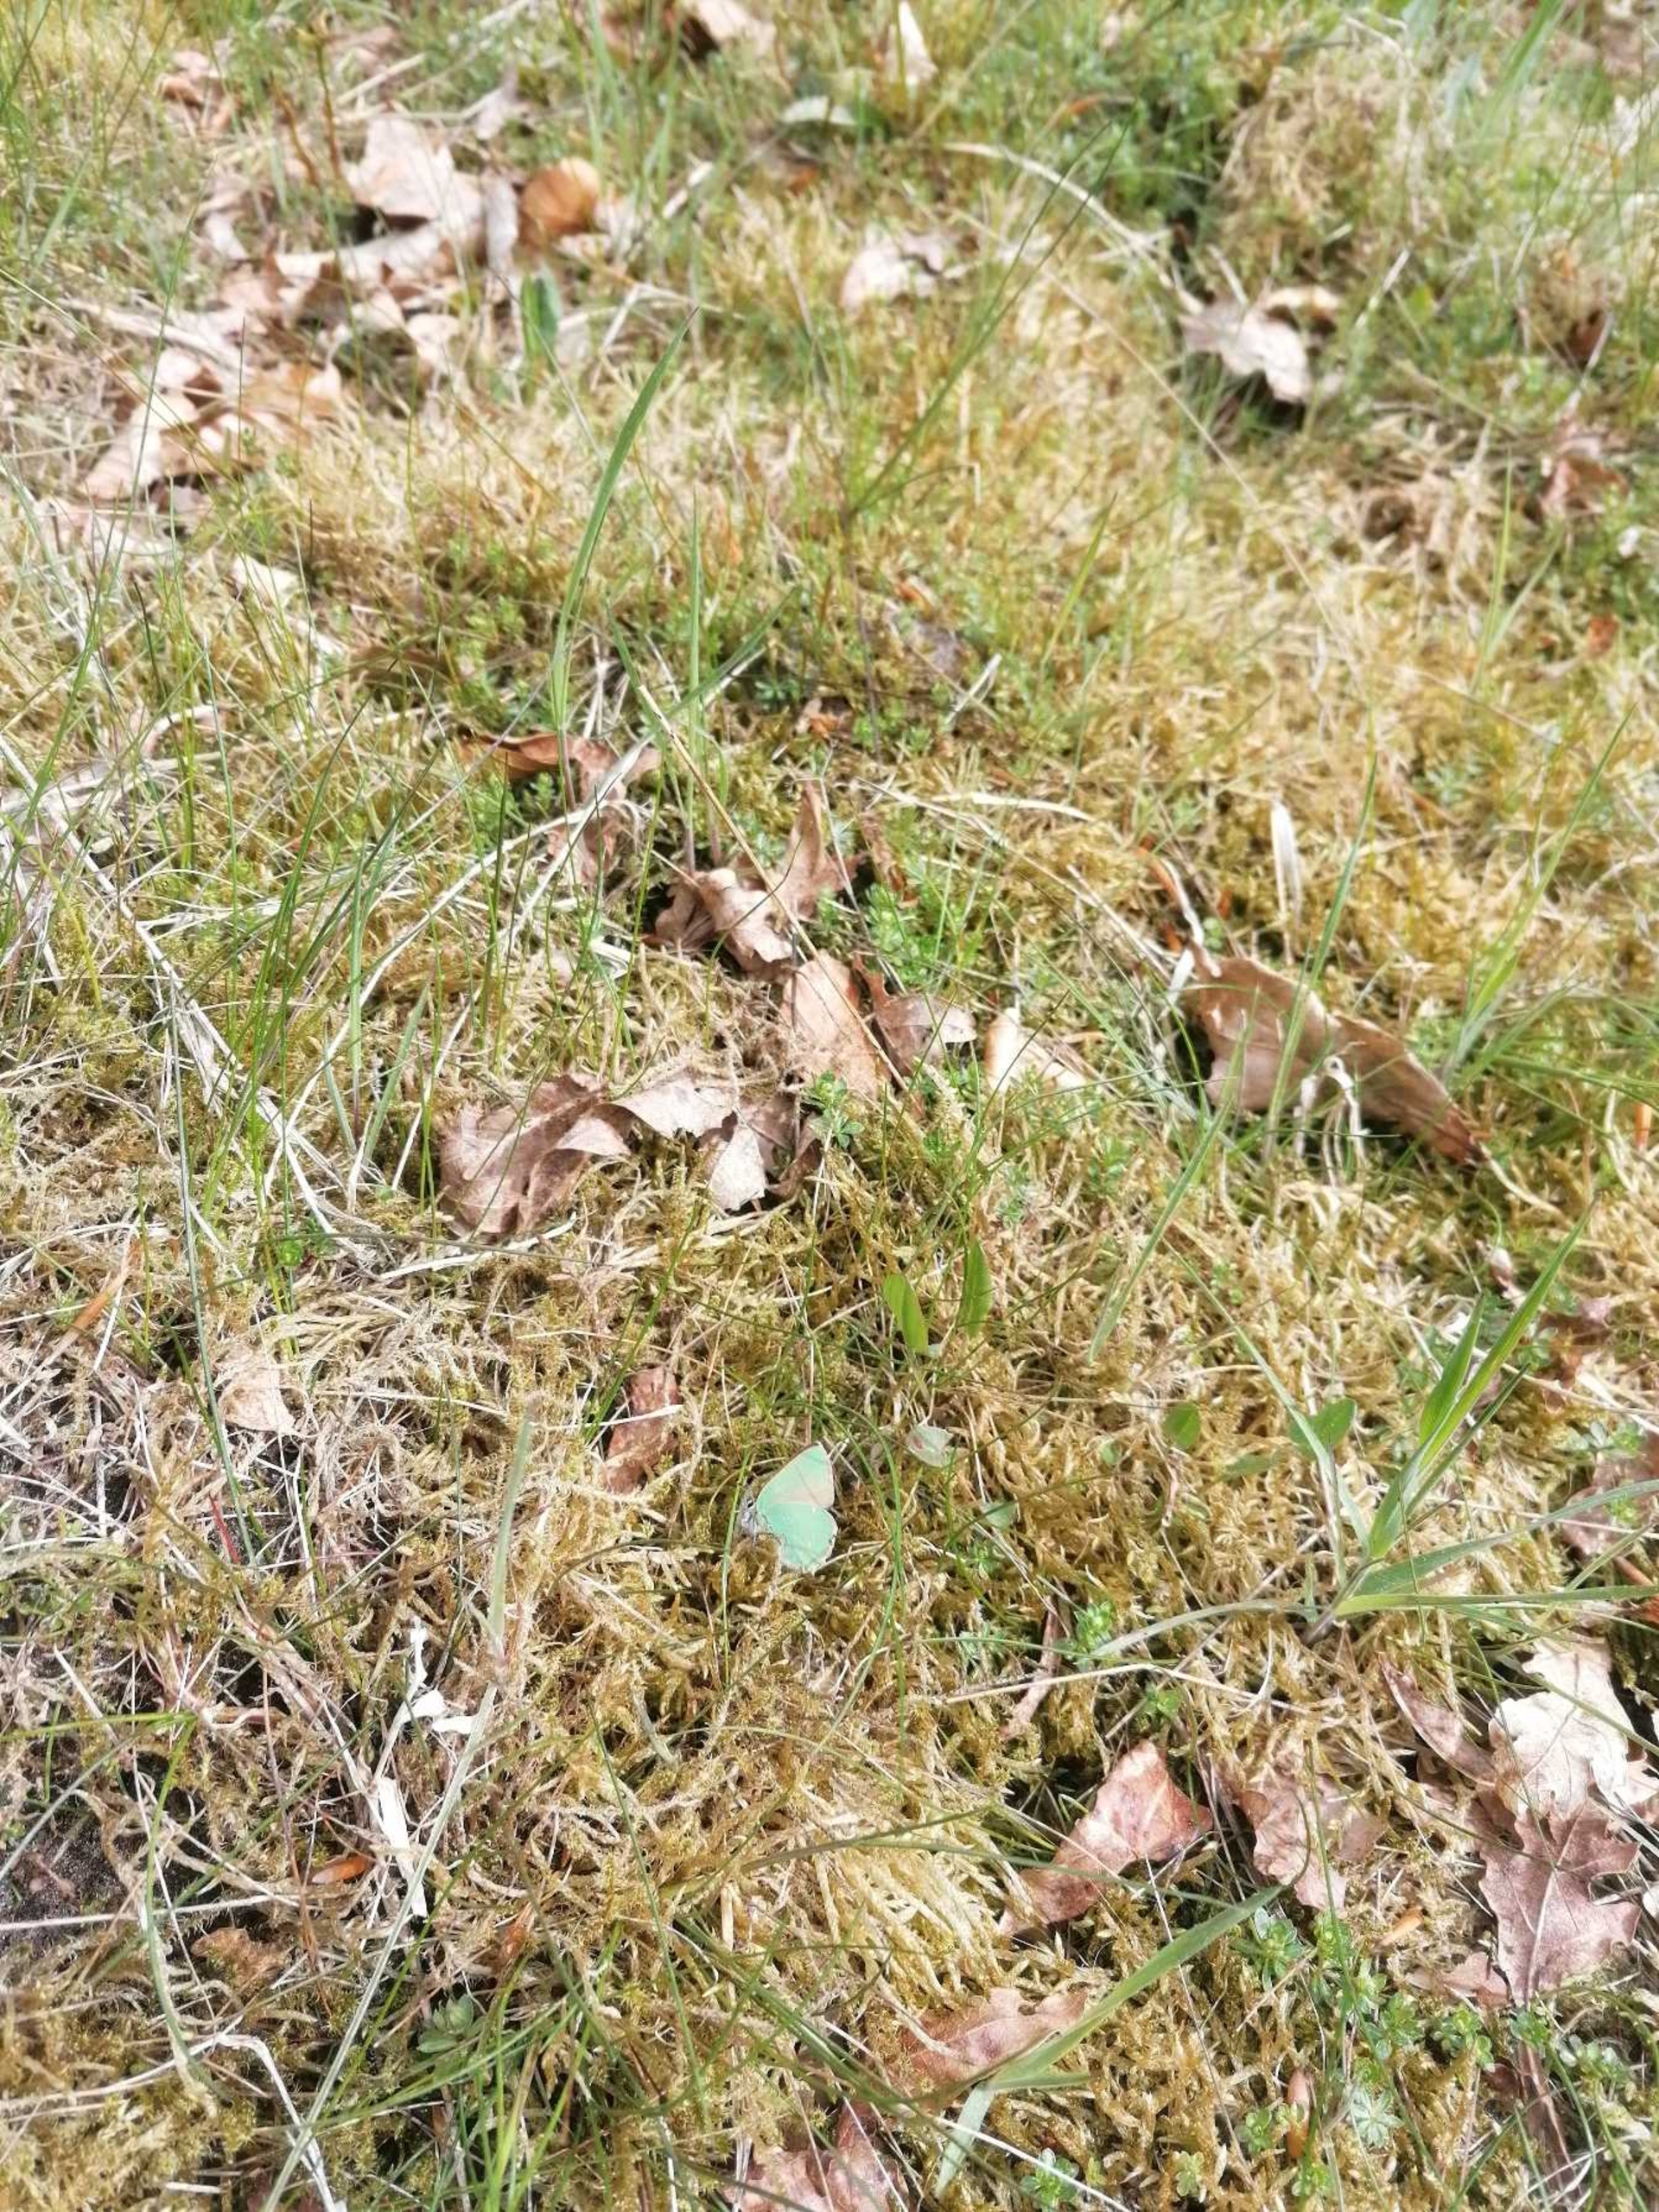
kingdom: Animalia
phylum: Arthropoda
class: Insecta
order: Lepidoptera
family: Lycaenidae
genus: Callophrys
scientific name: Callophrys rubi
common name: Grøn busksommerfugl
